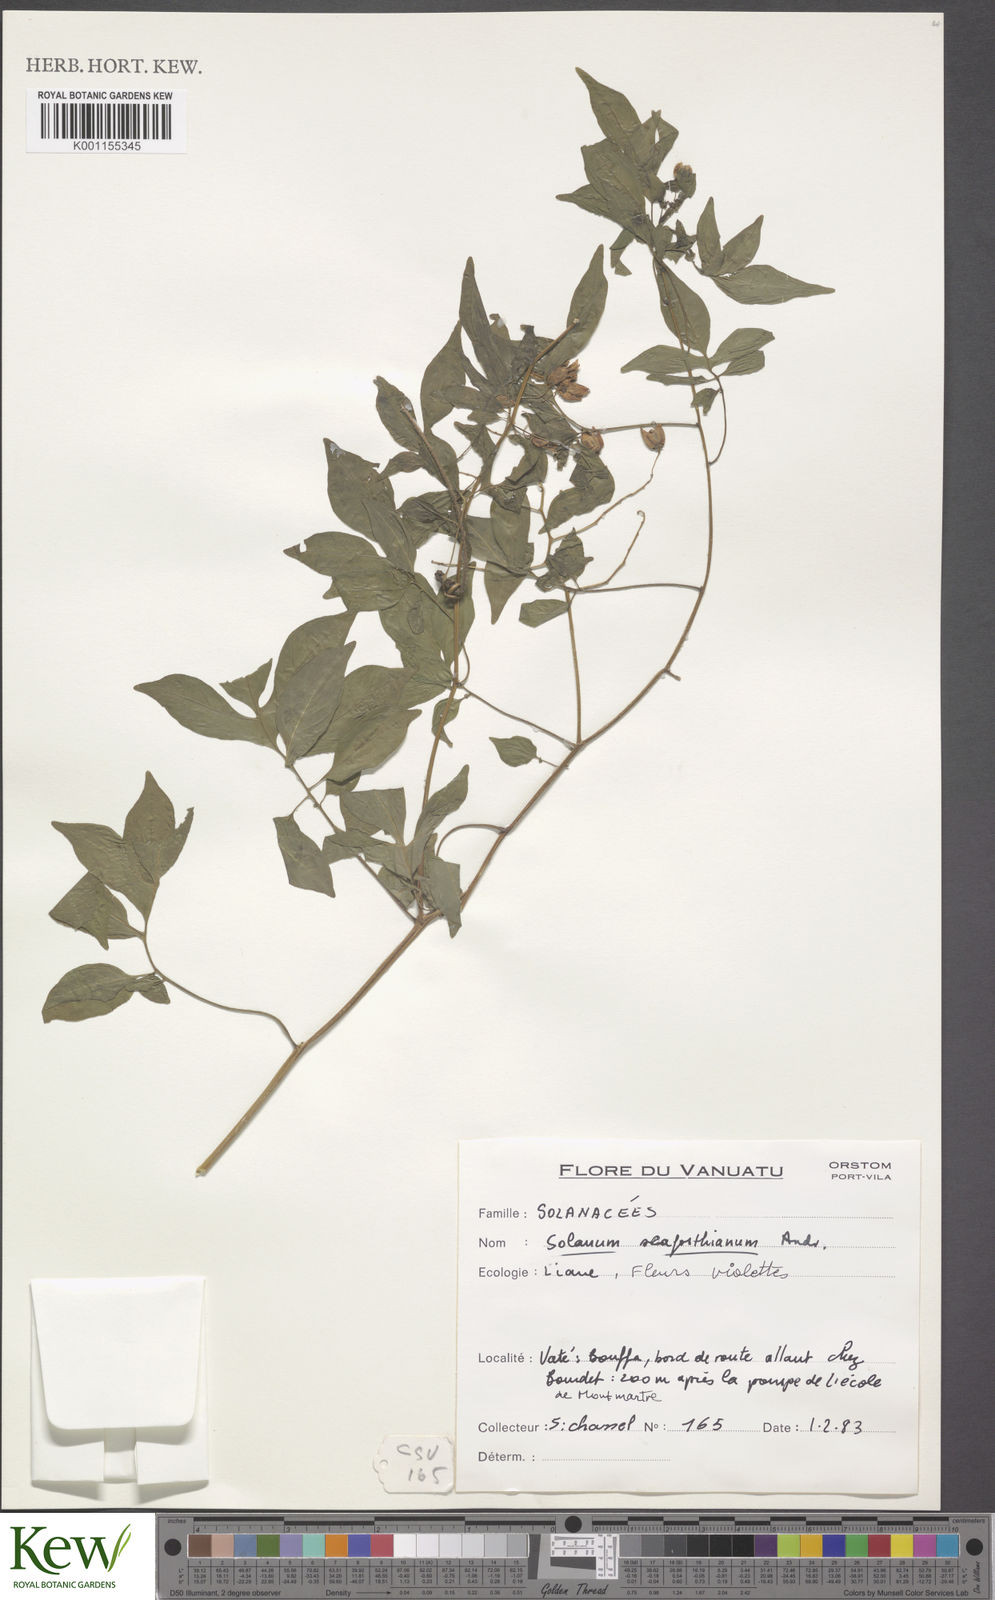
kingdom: Plantae
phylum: Tracheophyta
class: Magnoliopsida
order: Solanales
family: Solanaceae
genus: Solanum
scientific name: Solanum seaforthianum
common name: Brazilian nightshade
